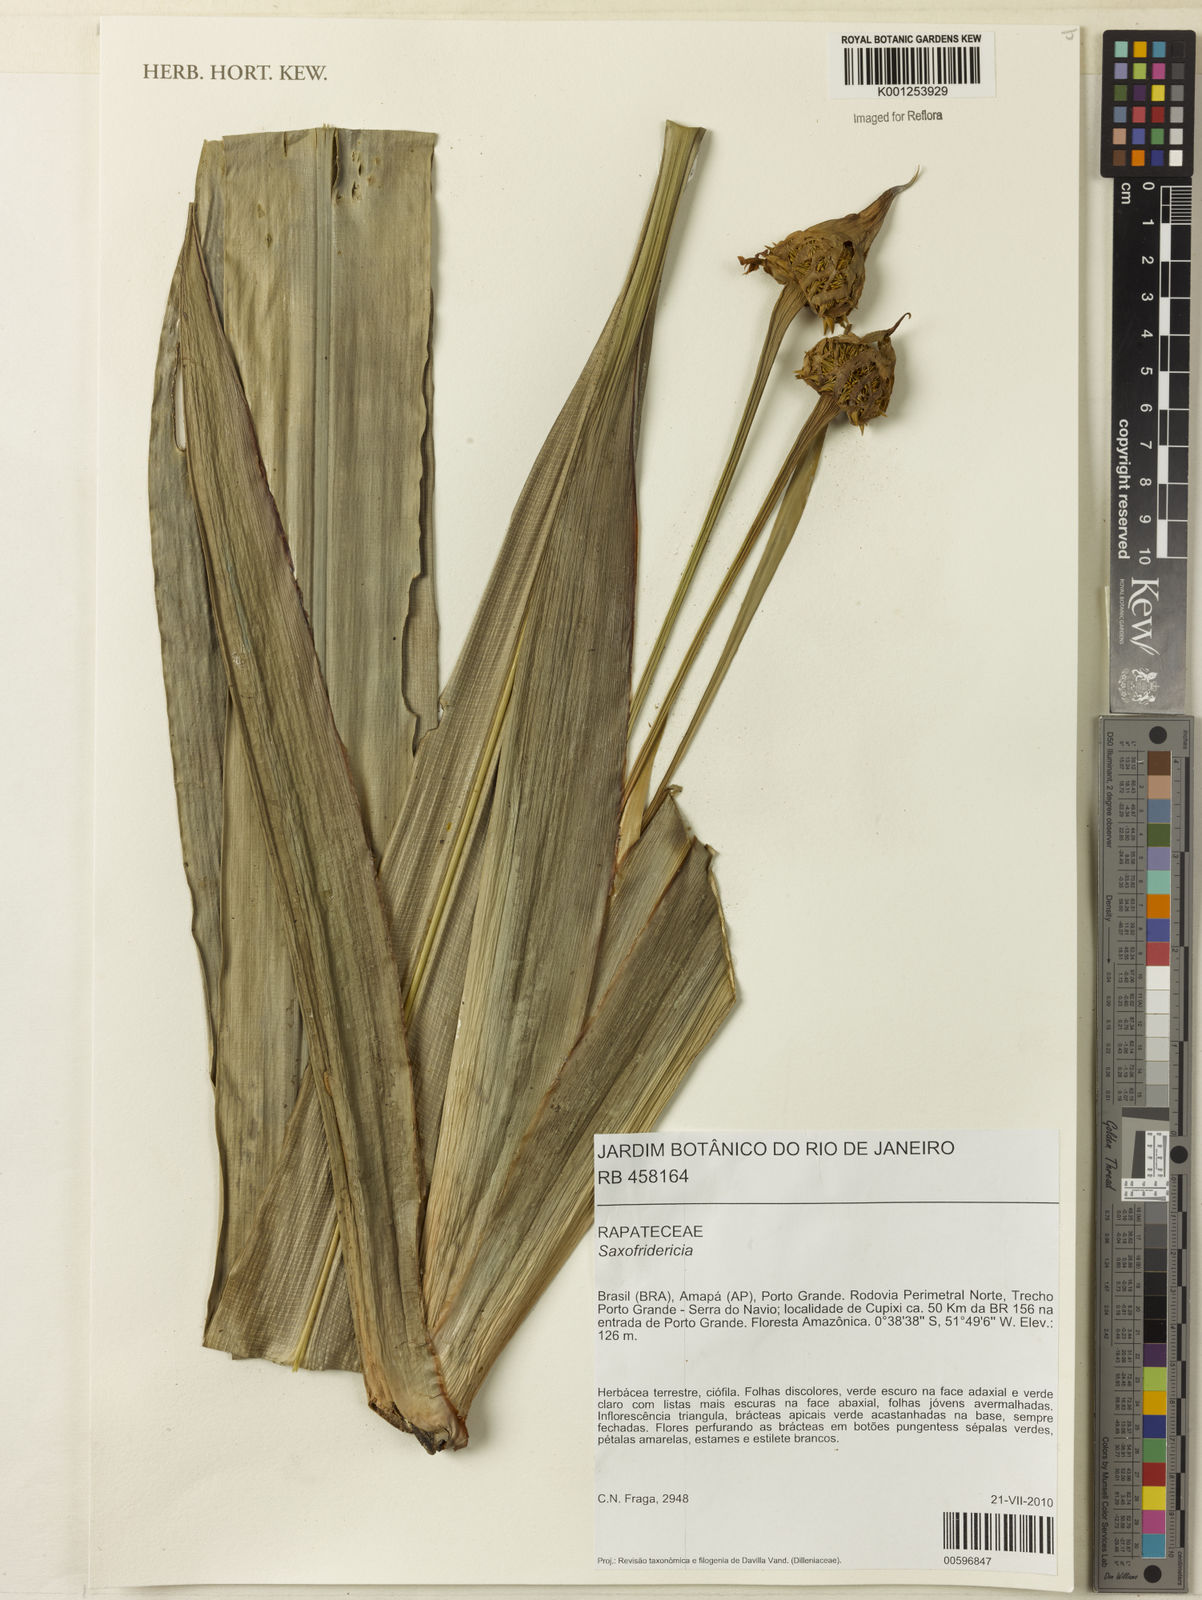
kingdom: Plantae
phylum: Tracheophyta
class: Liliopsida
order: Poales
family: Rapateaceae
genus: Saxofridericia
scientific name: Saxofridericia
